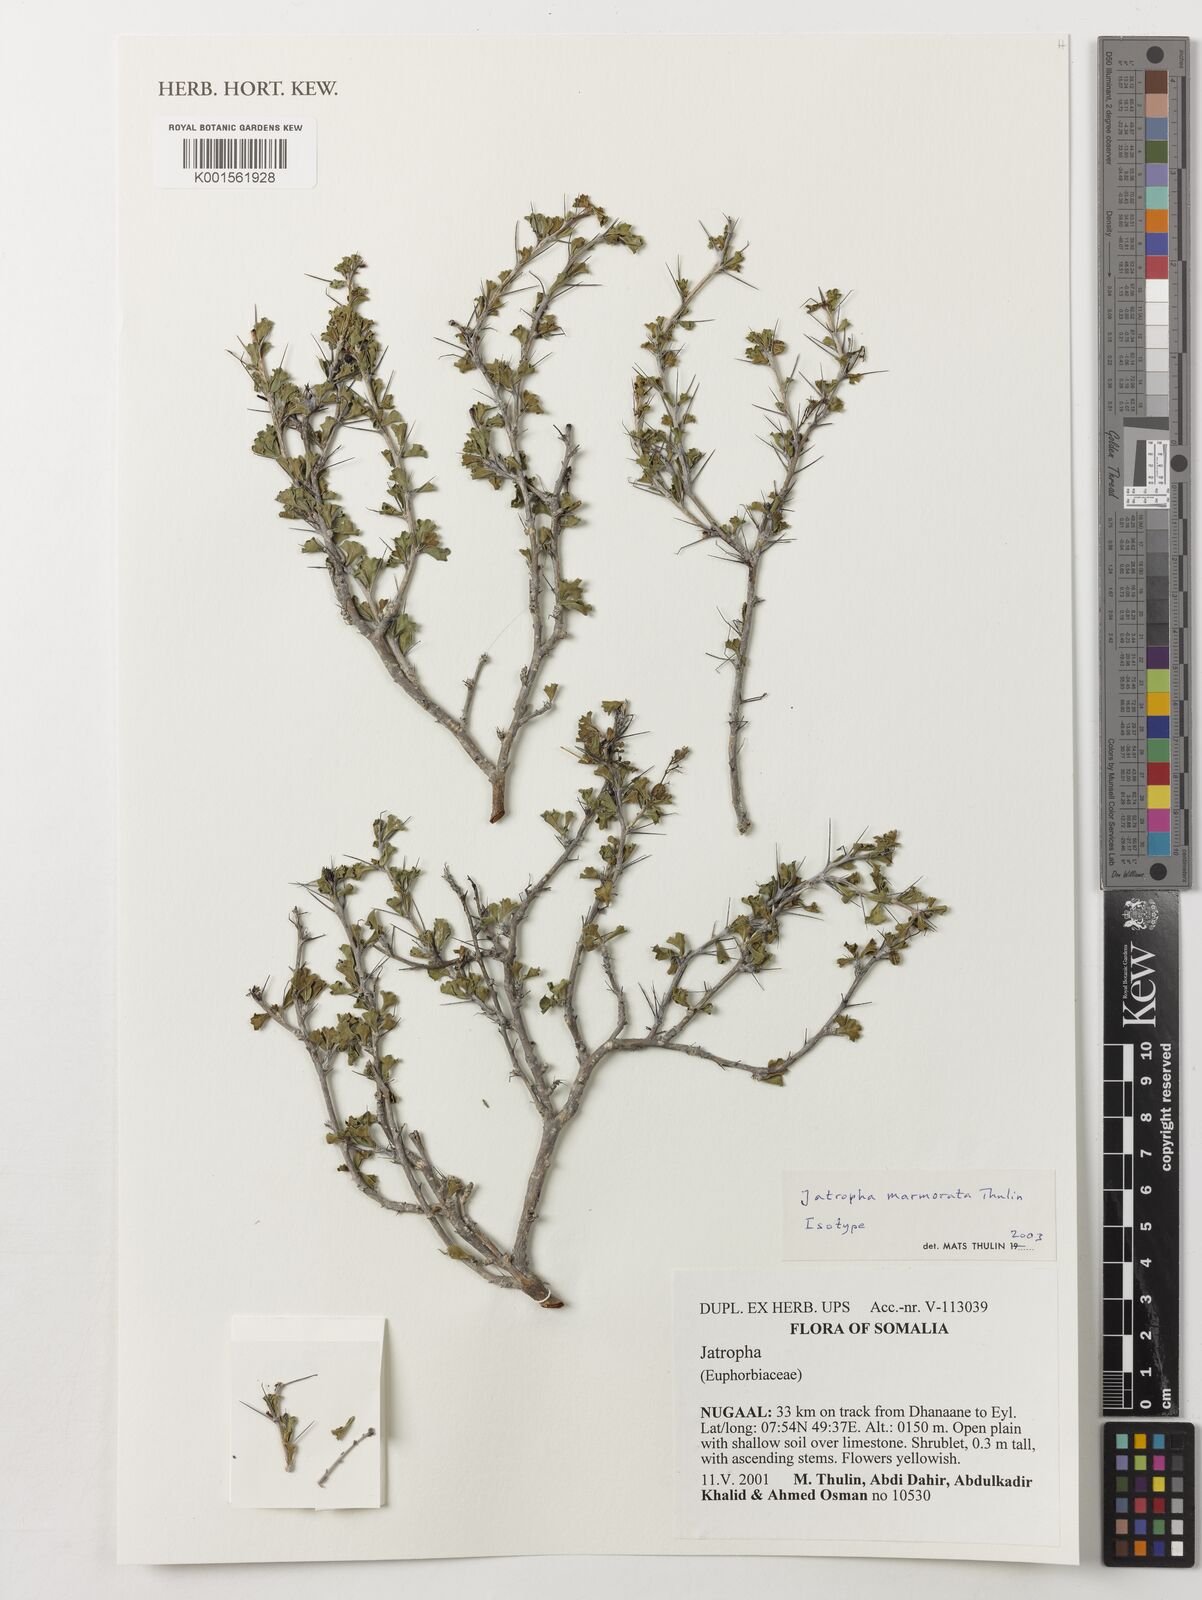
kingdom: Plantae
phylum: Tracheophyta
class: Magnoliopsida
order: Malpighiales
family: Euphorbiaceae
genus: Jatropha
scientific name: Jatropha marmorata
